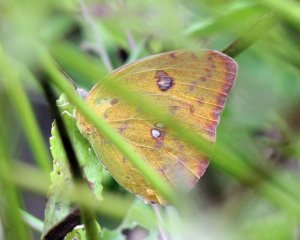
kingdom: Animalia
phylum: Arthropoda
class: Insecta
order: Lepidoptera
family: Pieridae
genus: Phoebis
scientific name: Phoebis philea
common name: Orange-barred Sulphur
